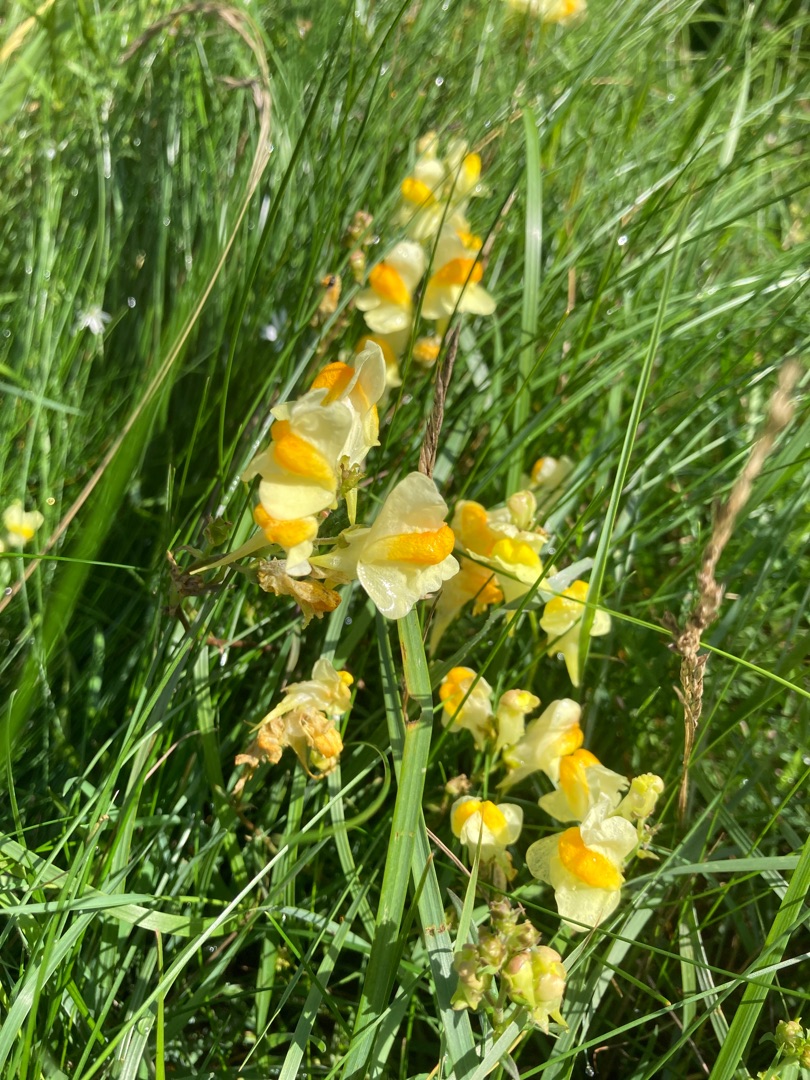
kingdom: Plantae
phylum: Tracheophyta
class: Magnoliopsida
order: Lamiales
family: Plantaginaceae
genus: Linaria
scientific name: Linaria vulgaris
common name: Almindelig torskemund
